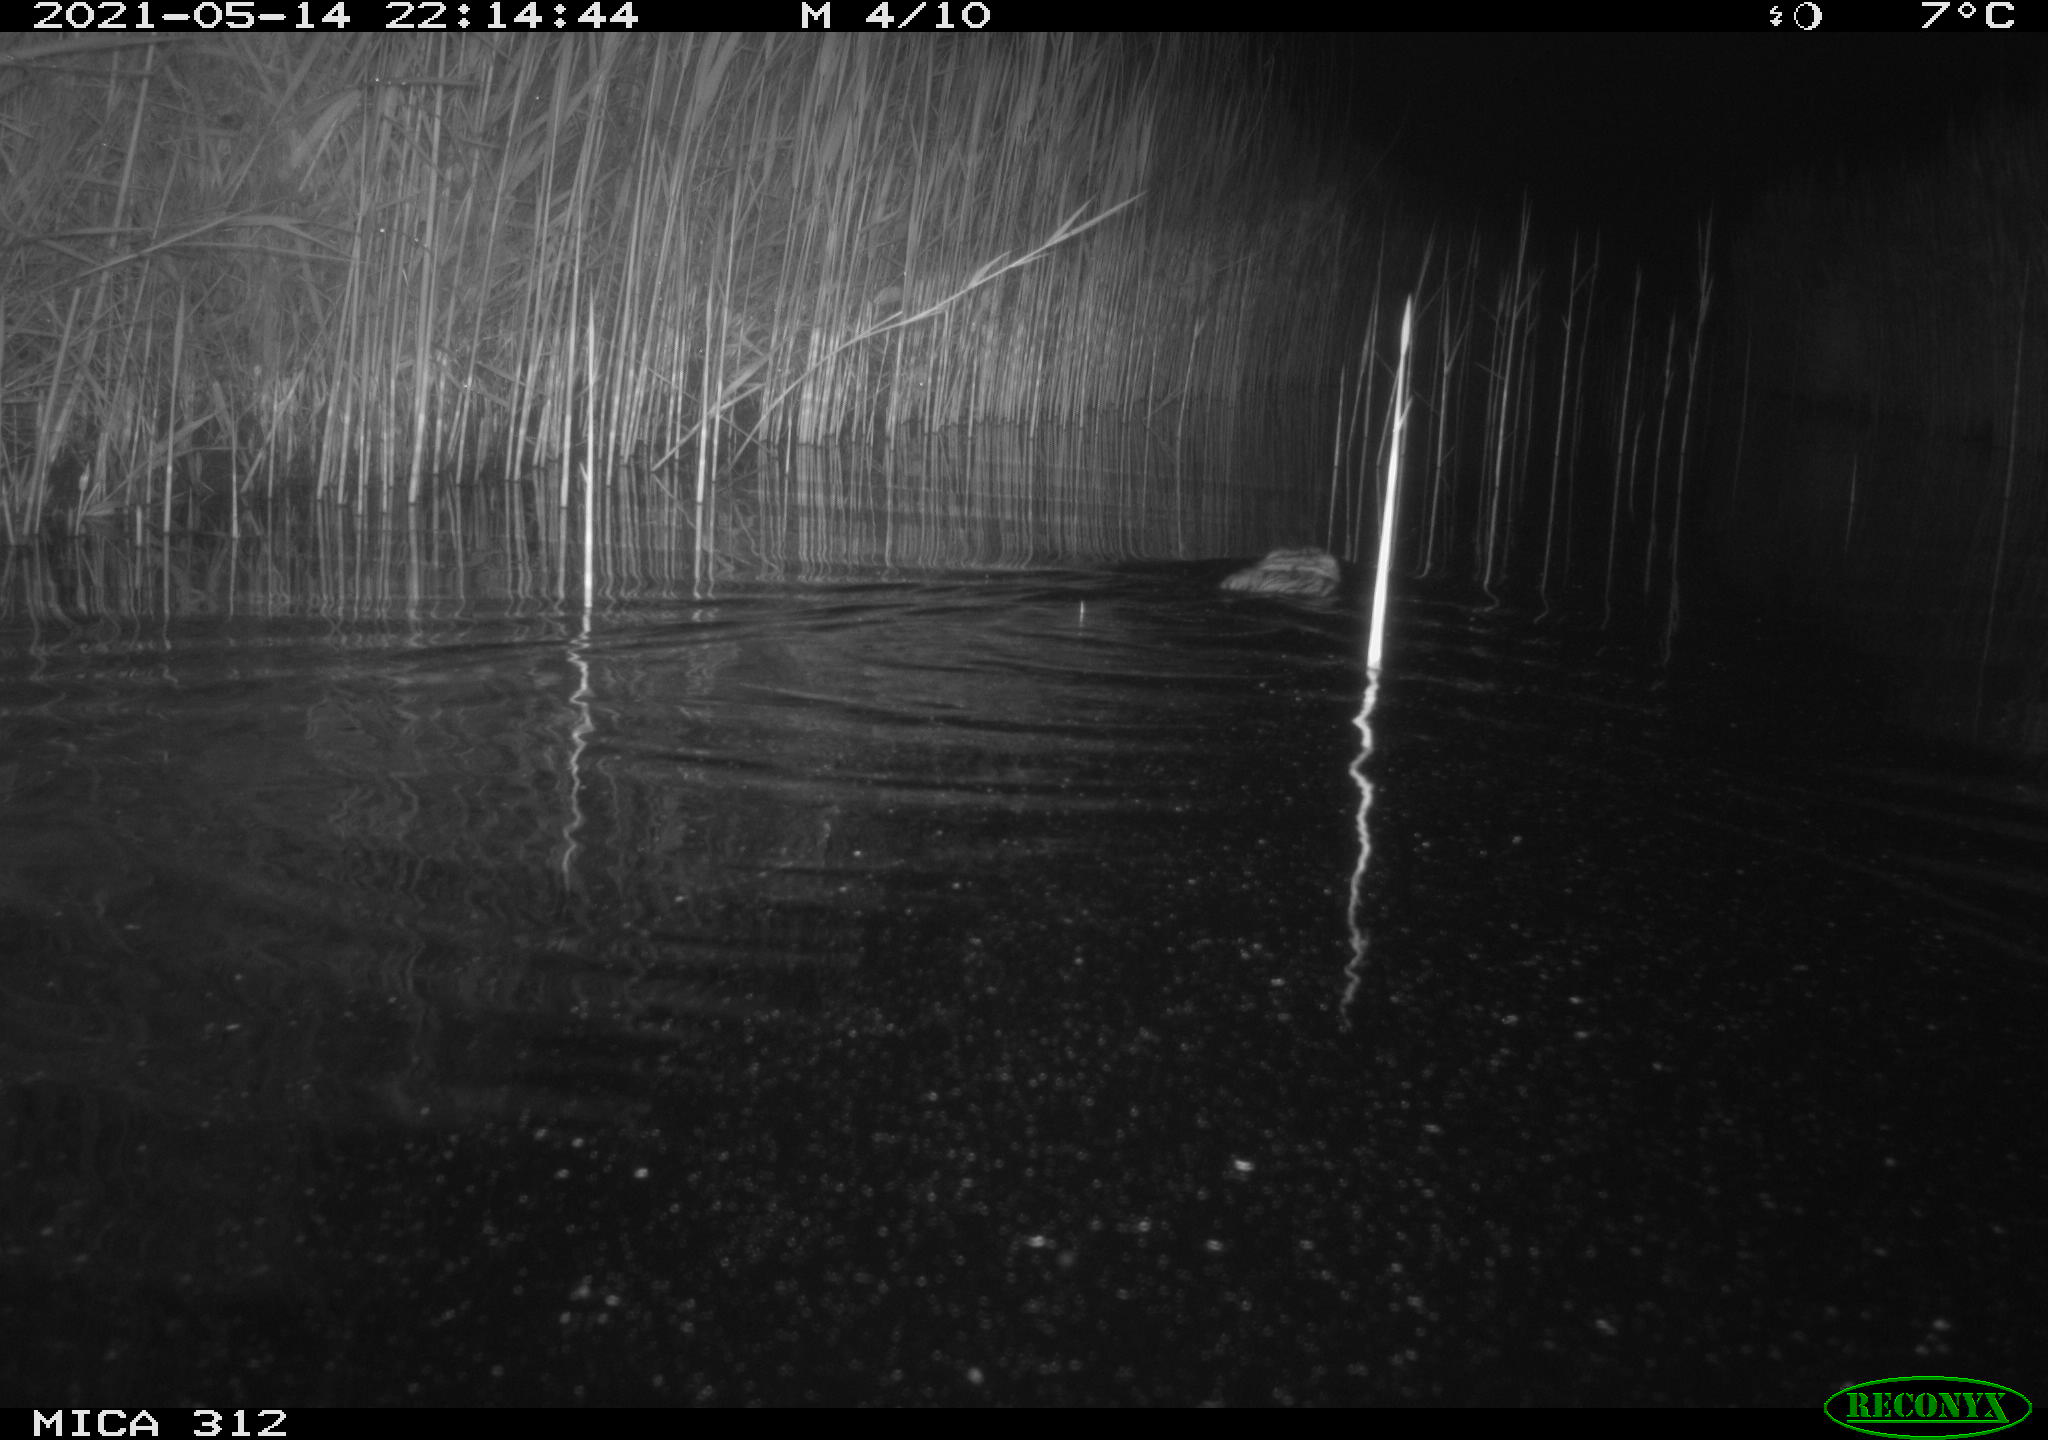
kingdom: Animalia
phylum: Chordata
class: Mammalia
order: Rodentia
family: Cricetidae
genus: Ondatra
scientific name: Ondatra zibethicus
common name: Muskrat
